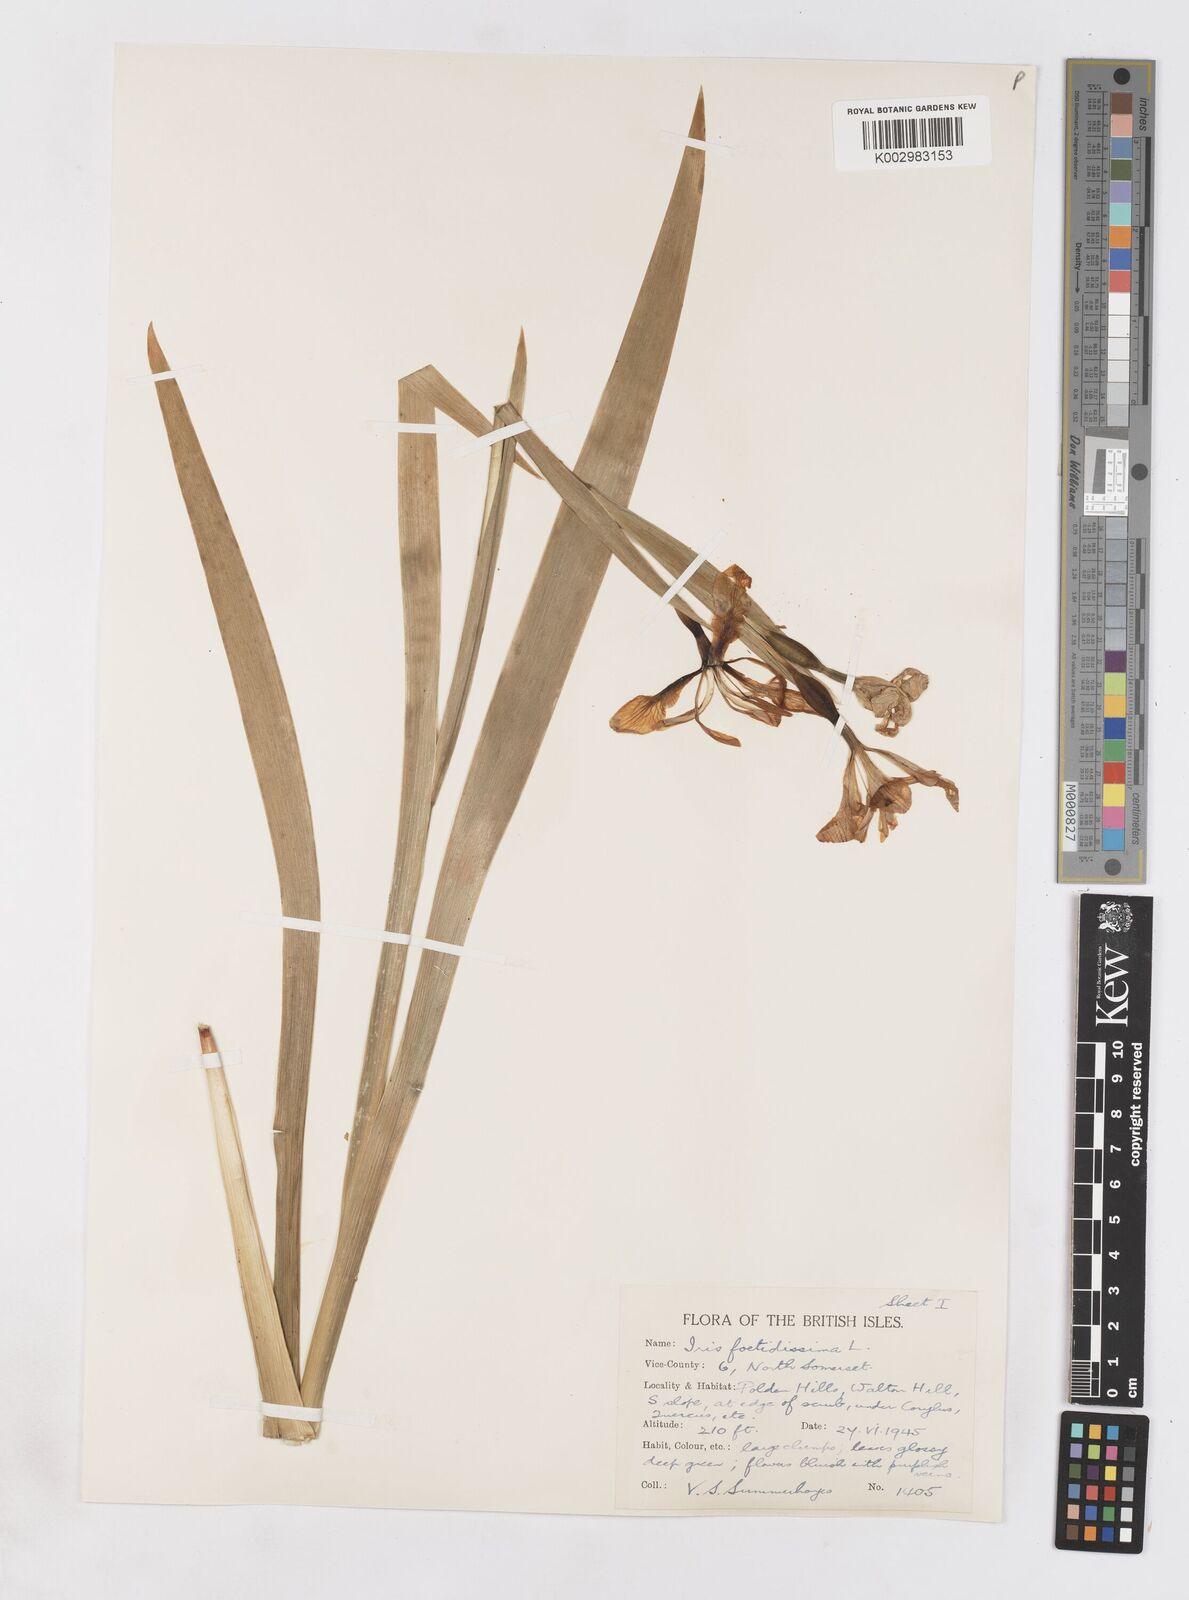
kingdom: Plantae
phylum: Tracheophyta
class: Liliopsida
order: Asparagales
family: Iridaceae
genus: Iris
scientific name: Iris foetidissima
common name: Stinking iris
